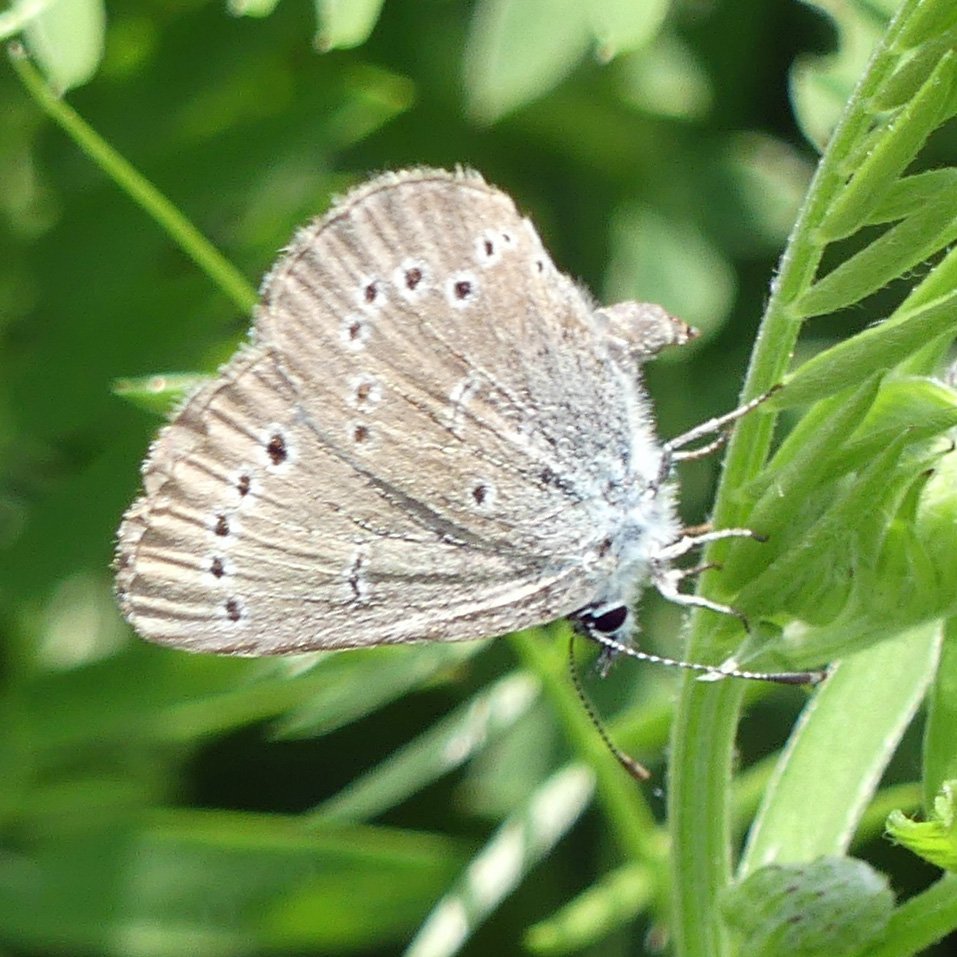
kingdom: Animalia
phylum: Arthropoda
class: Insecta
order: Lepidoptera
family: Lycaenidae
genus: Glaucopsyche
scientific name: Glaucopsyche lygdamus
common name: Silvery Blue
